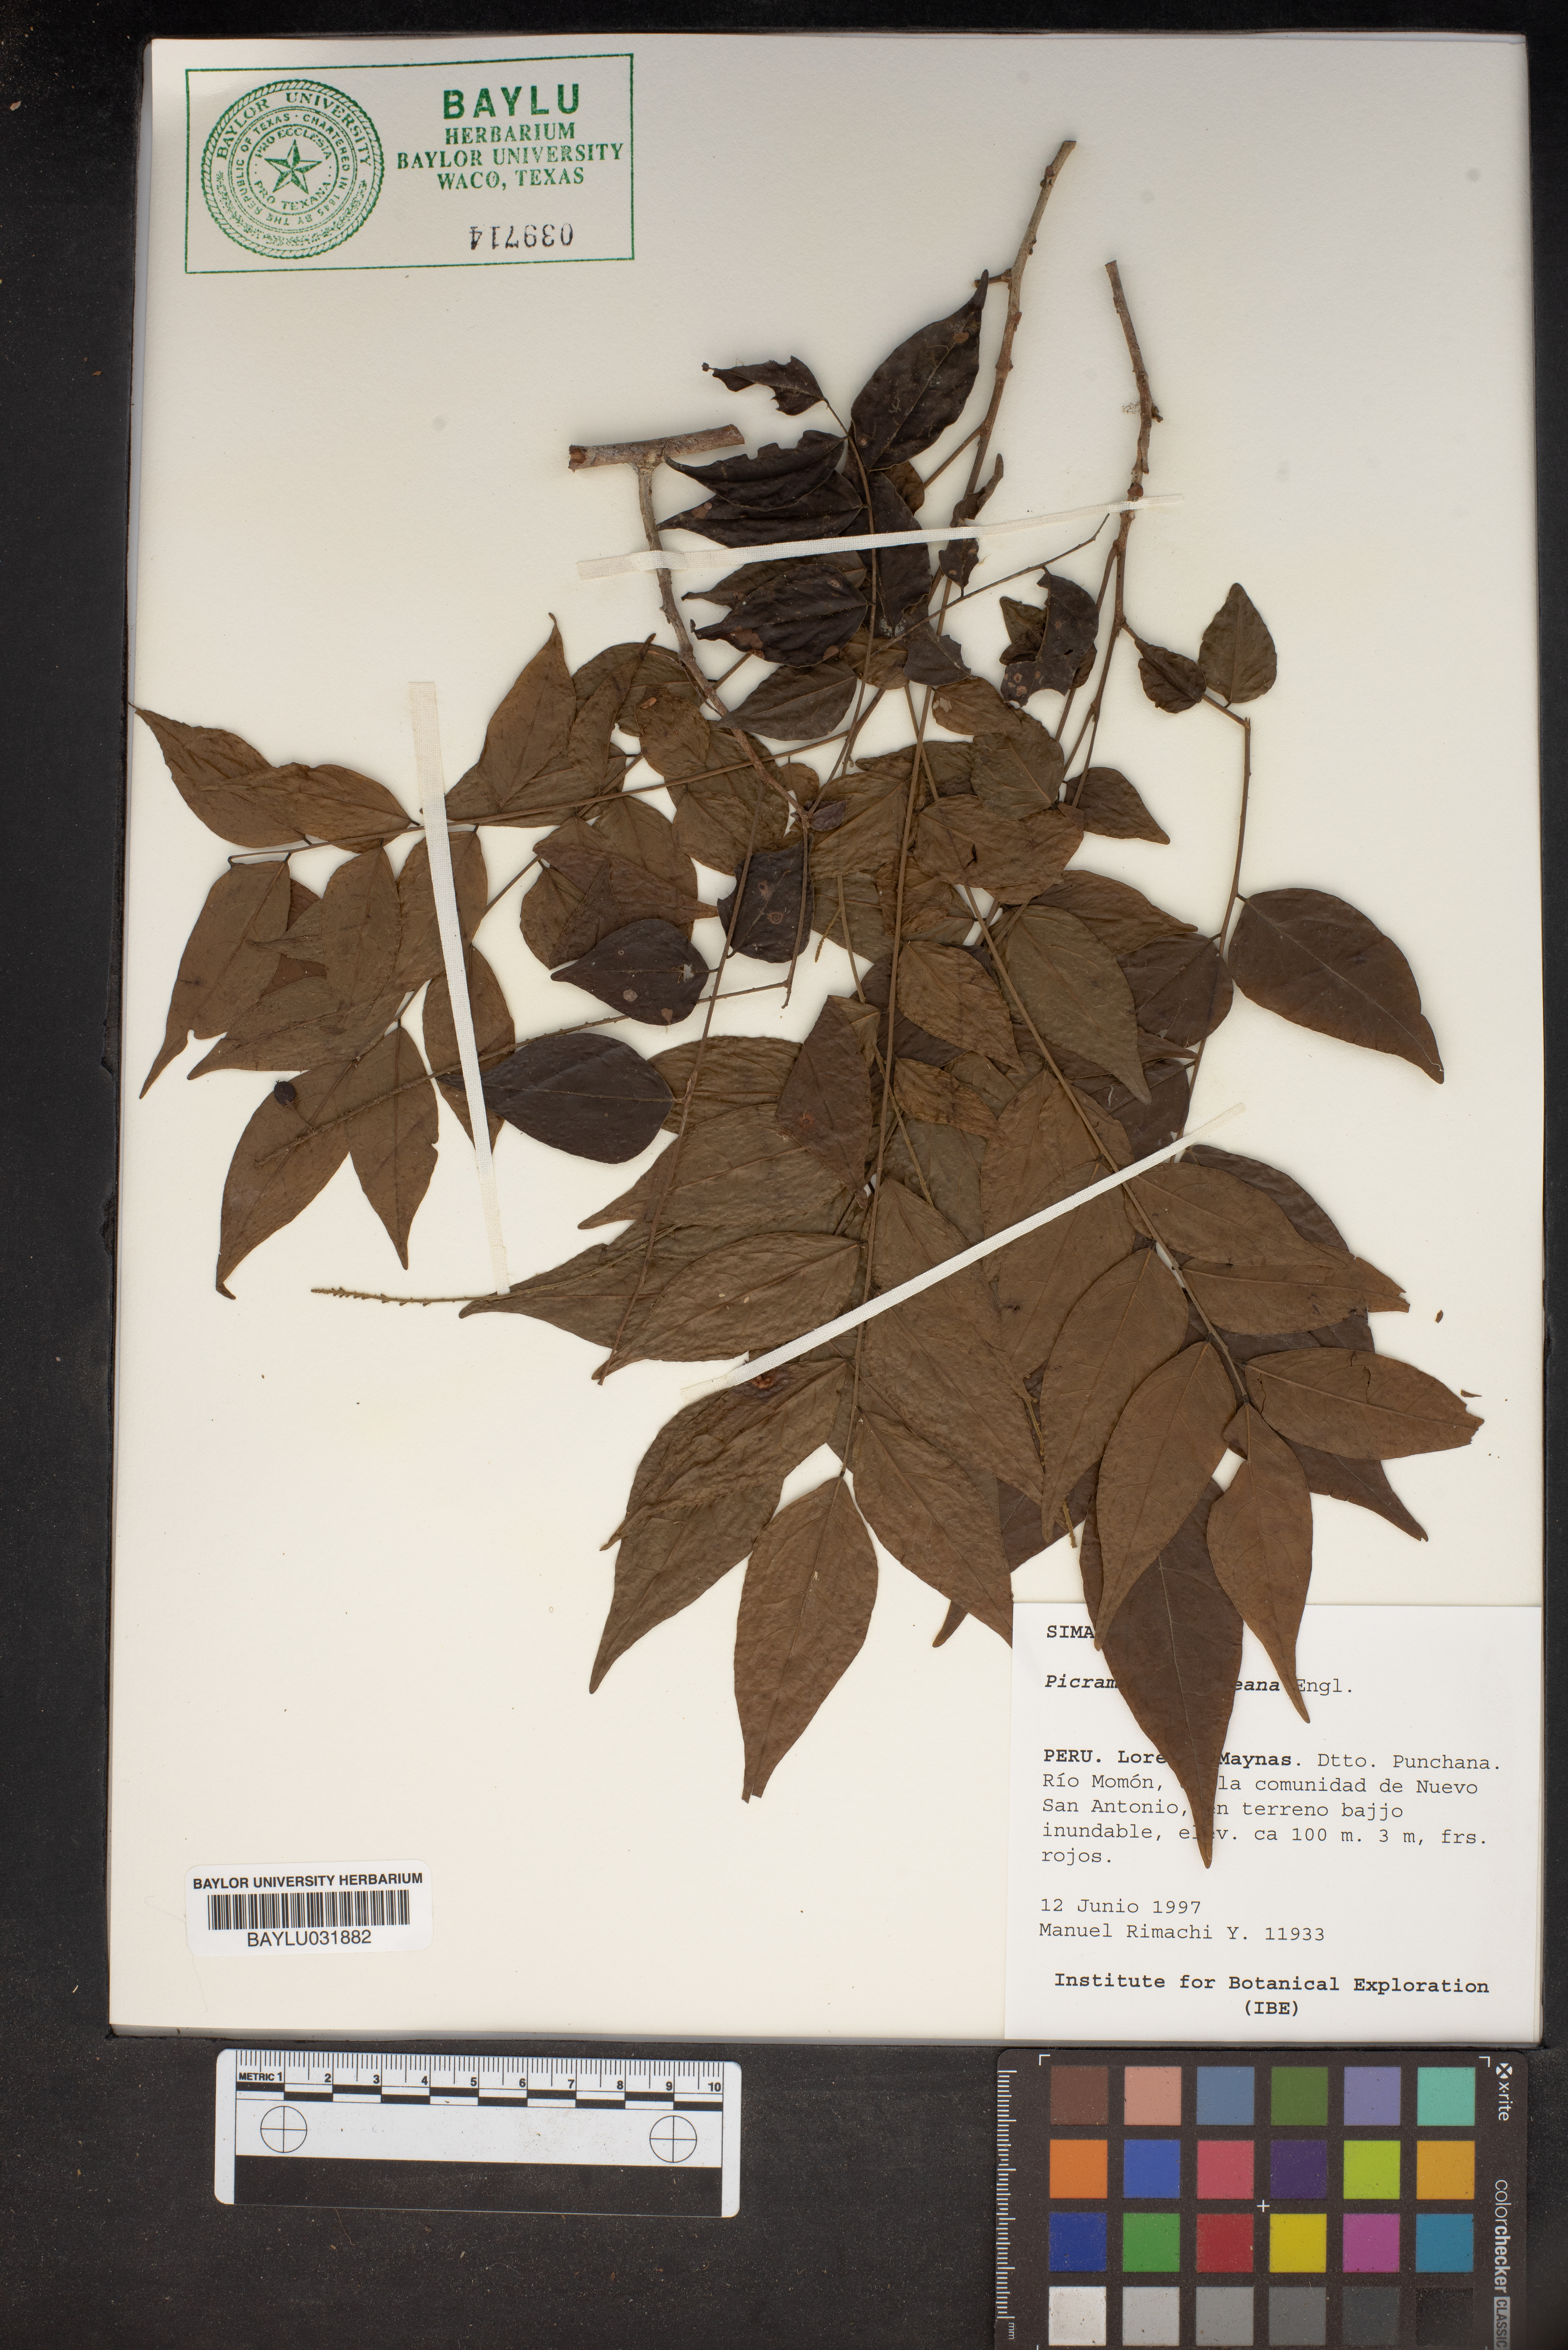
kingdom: Plantae
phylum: Tracheophyta
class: Magnoliopsida
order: Picramniales
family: Picramniaceae
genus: Picramnia
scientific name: Picramnia
